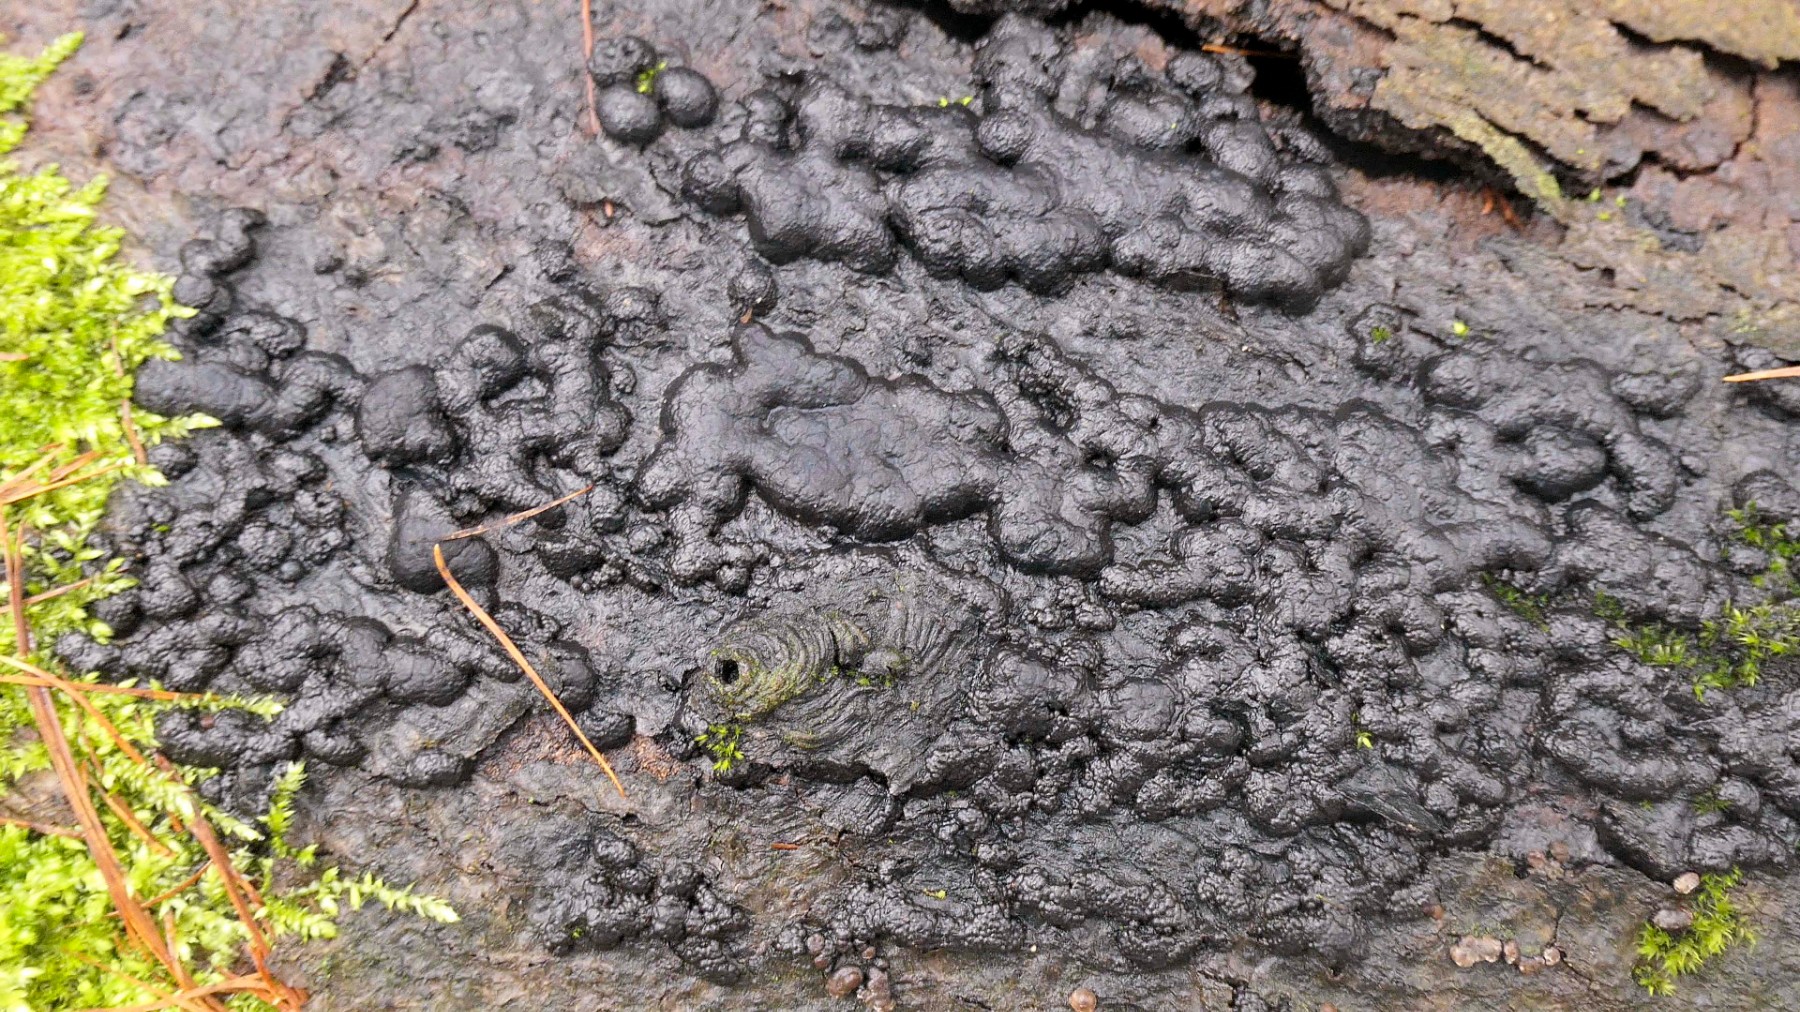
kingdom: Fungi
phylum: Ascomycota
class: Sordariomycetes
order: Xylariales
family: Hypoxylaceae
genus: Jackrogersella
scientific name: Jackrogersella cohaerens
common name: sammenflydende kulbær
